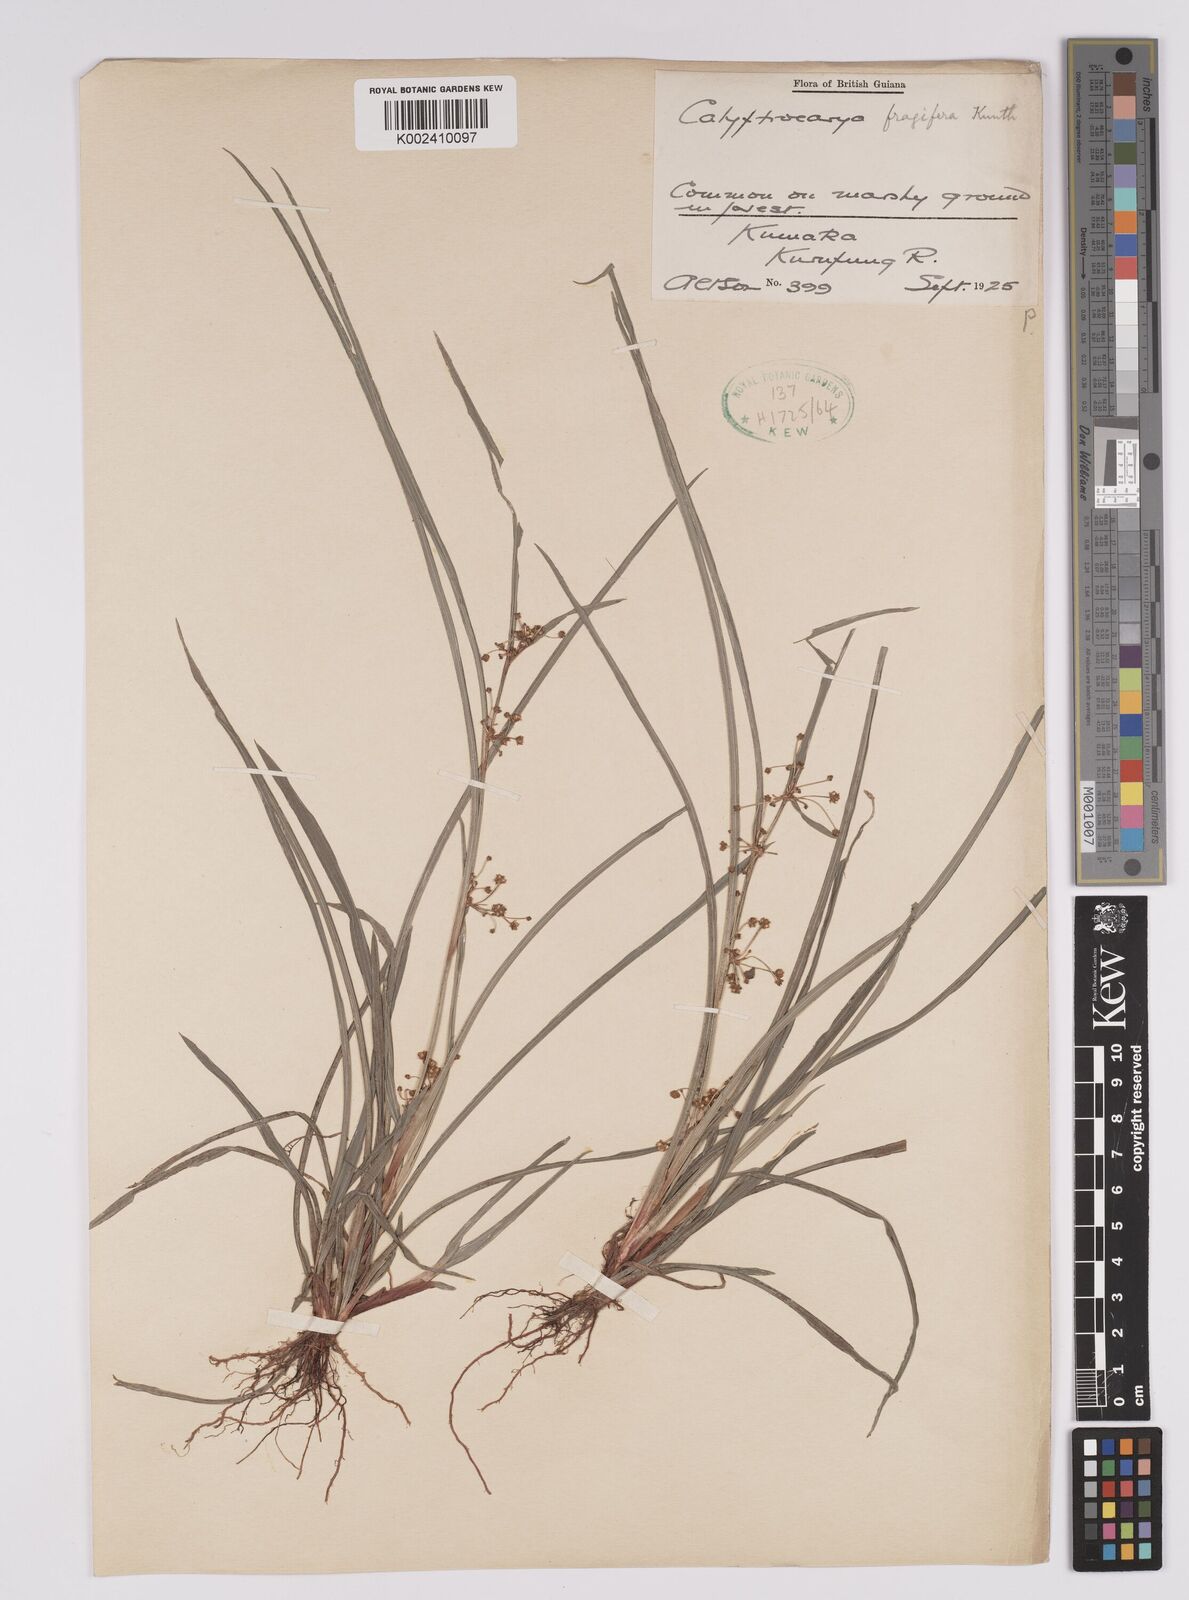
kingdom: Plantae
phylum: Tracheophyta
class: Liliopsida
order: Poales
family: Cyperaceae
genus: Calyptrocarya
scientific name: Calyptrocarya
